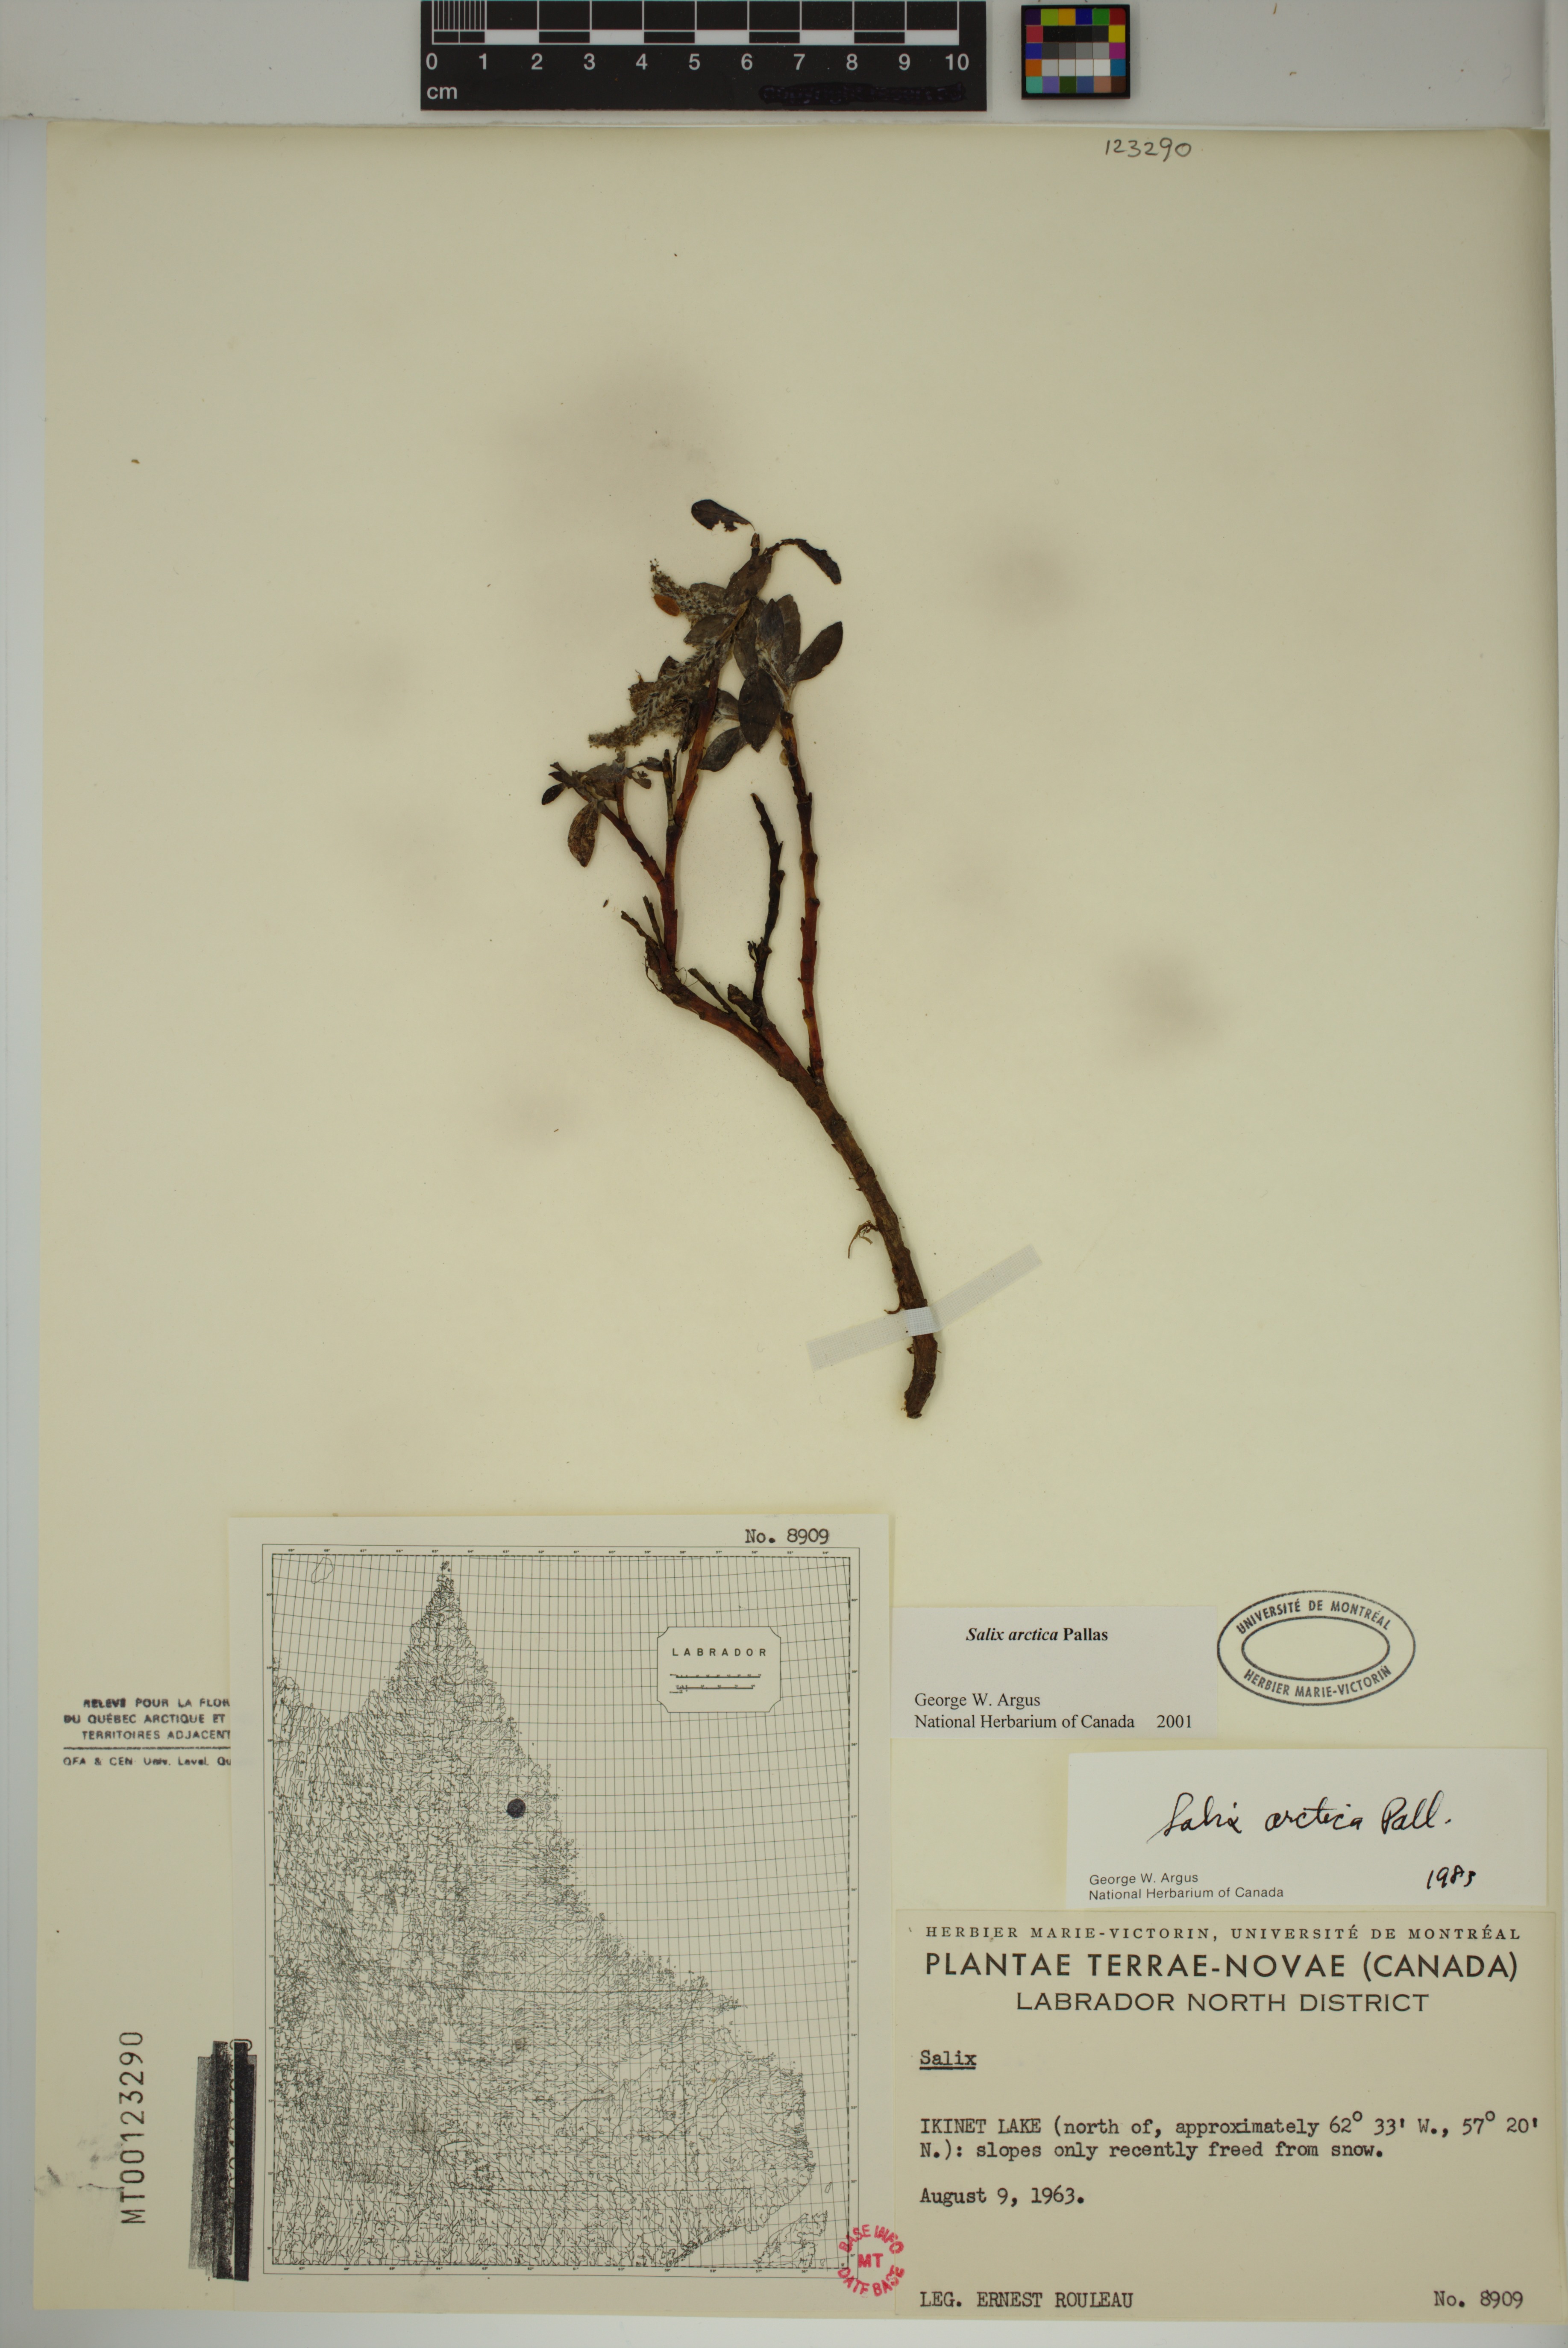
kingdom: Plantae
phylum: Tracheophyta
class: Magnoliopsida
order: Malpighiales
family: Salicaceae
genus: Salix
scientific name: Salix arctica
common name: Arctic willow
